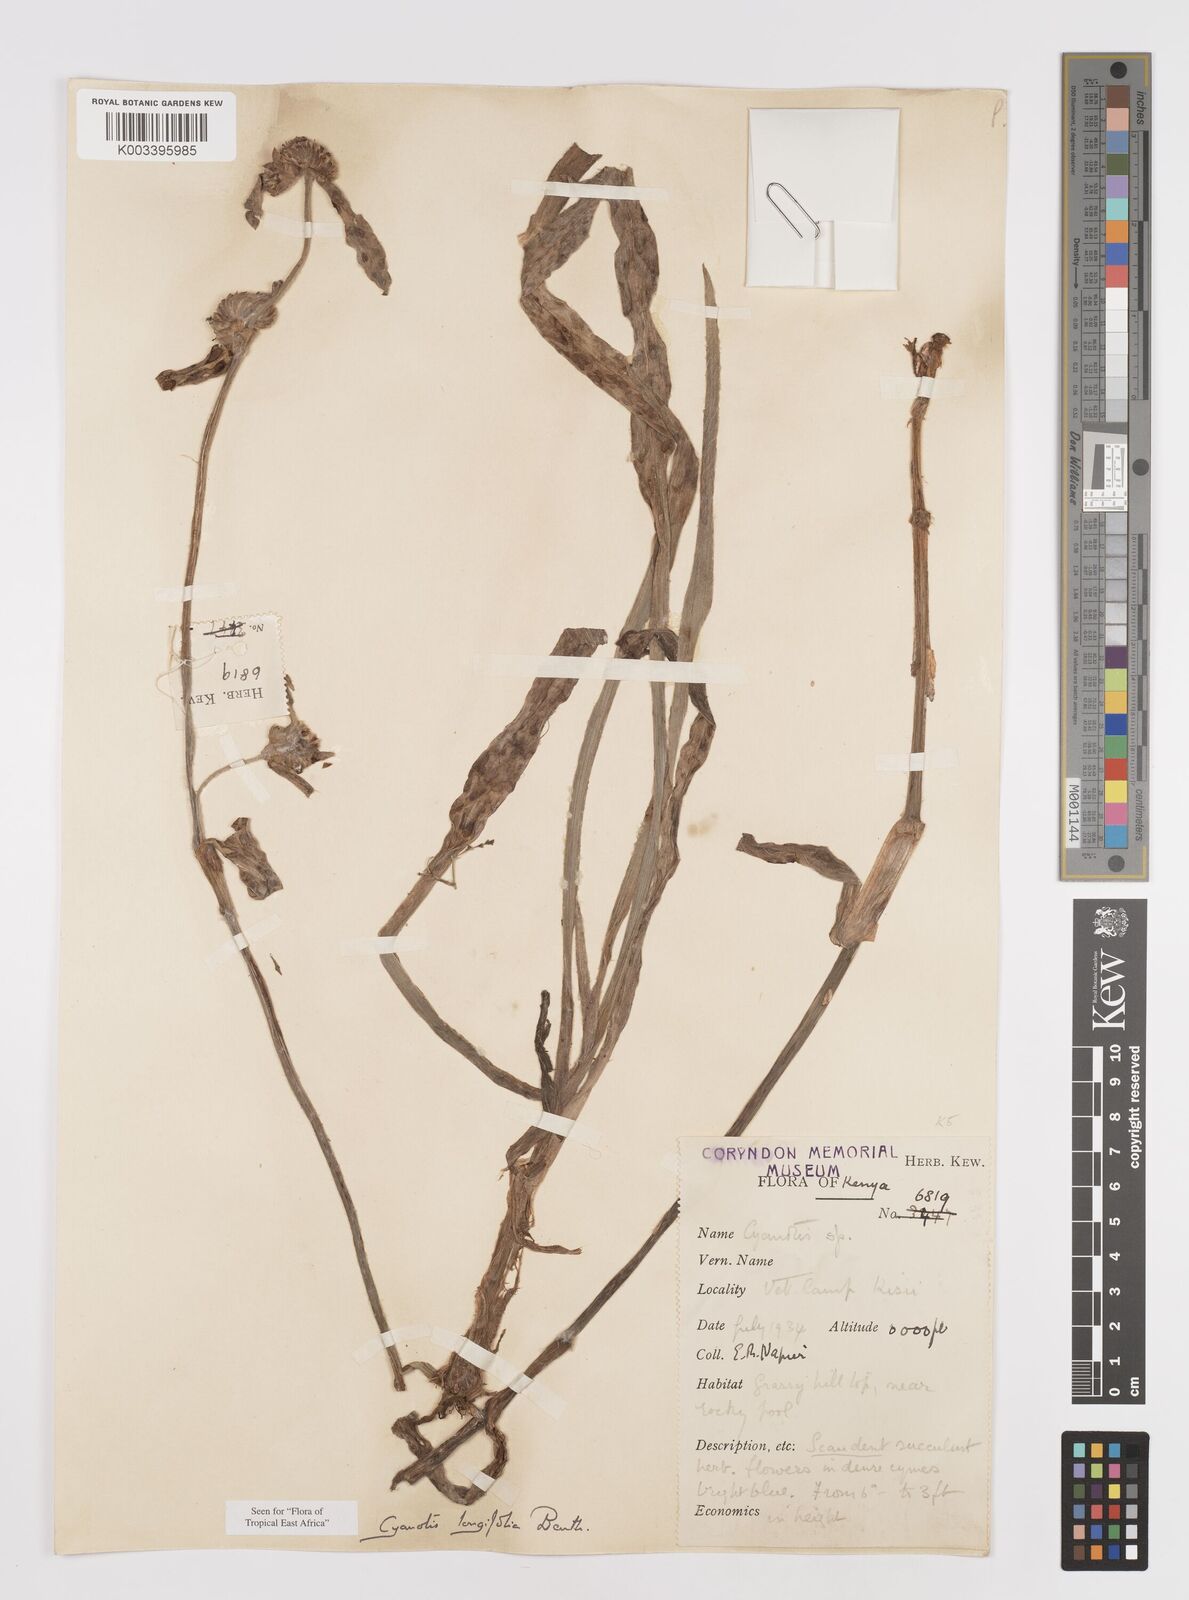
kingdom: Plantae
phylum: Tracheophyta
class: Liliopsida
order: Commelinales
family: Commelinaceae
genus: Cyanotis
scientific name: Cyanotis longifolia
